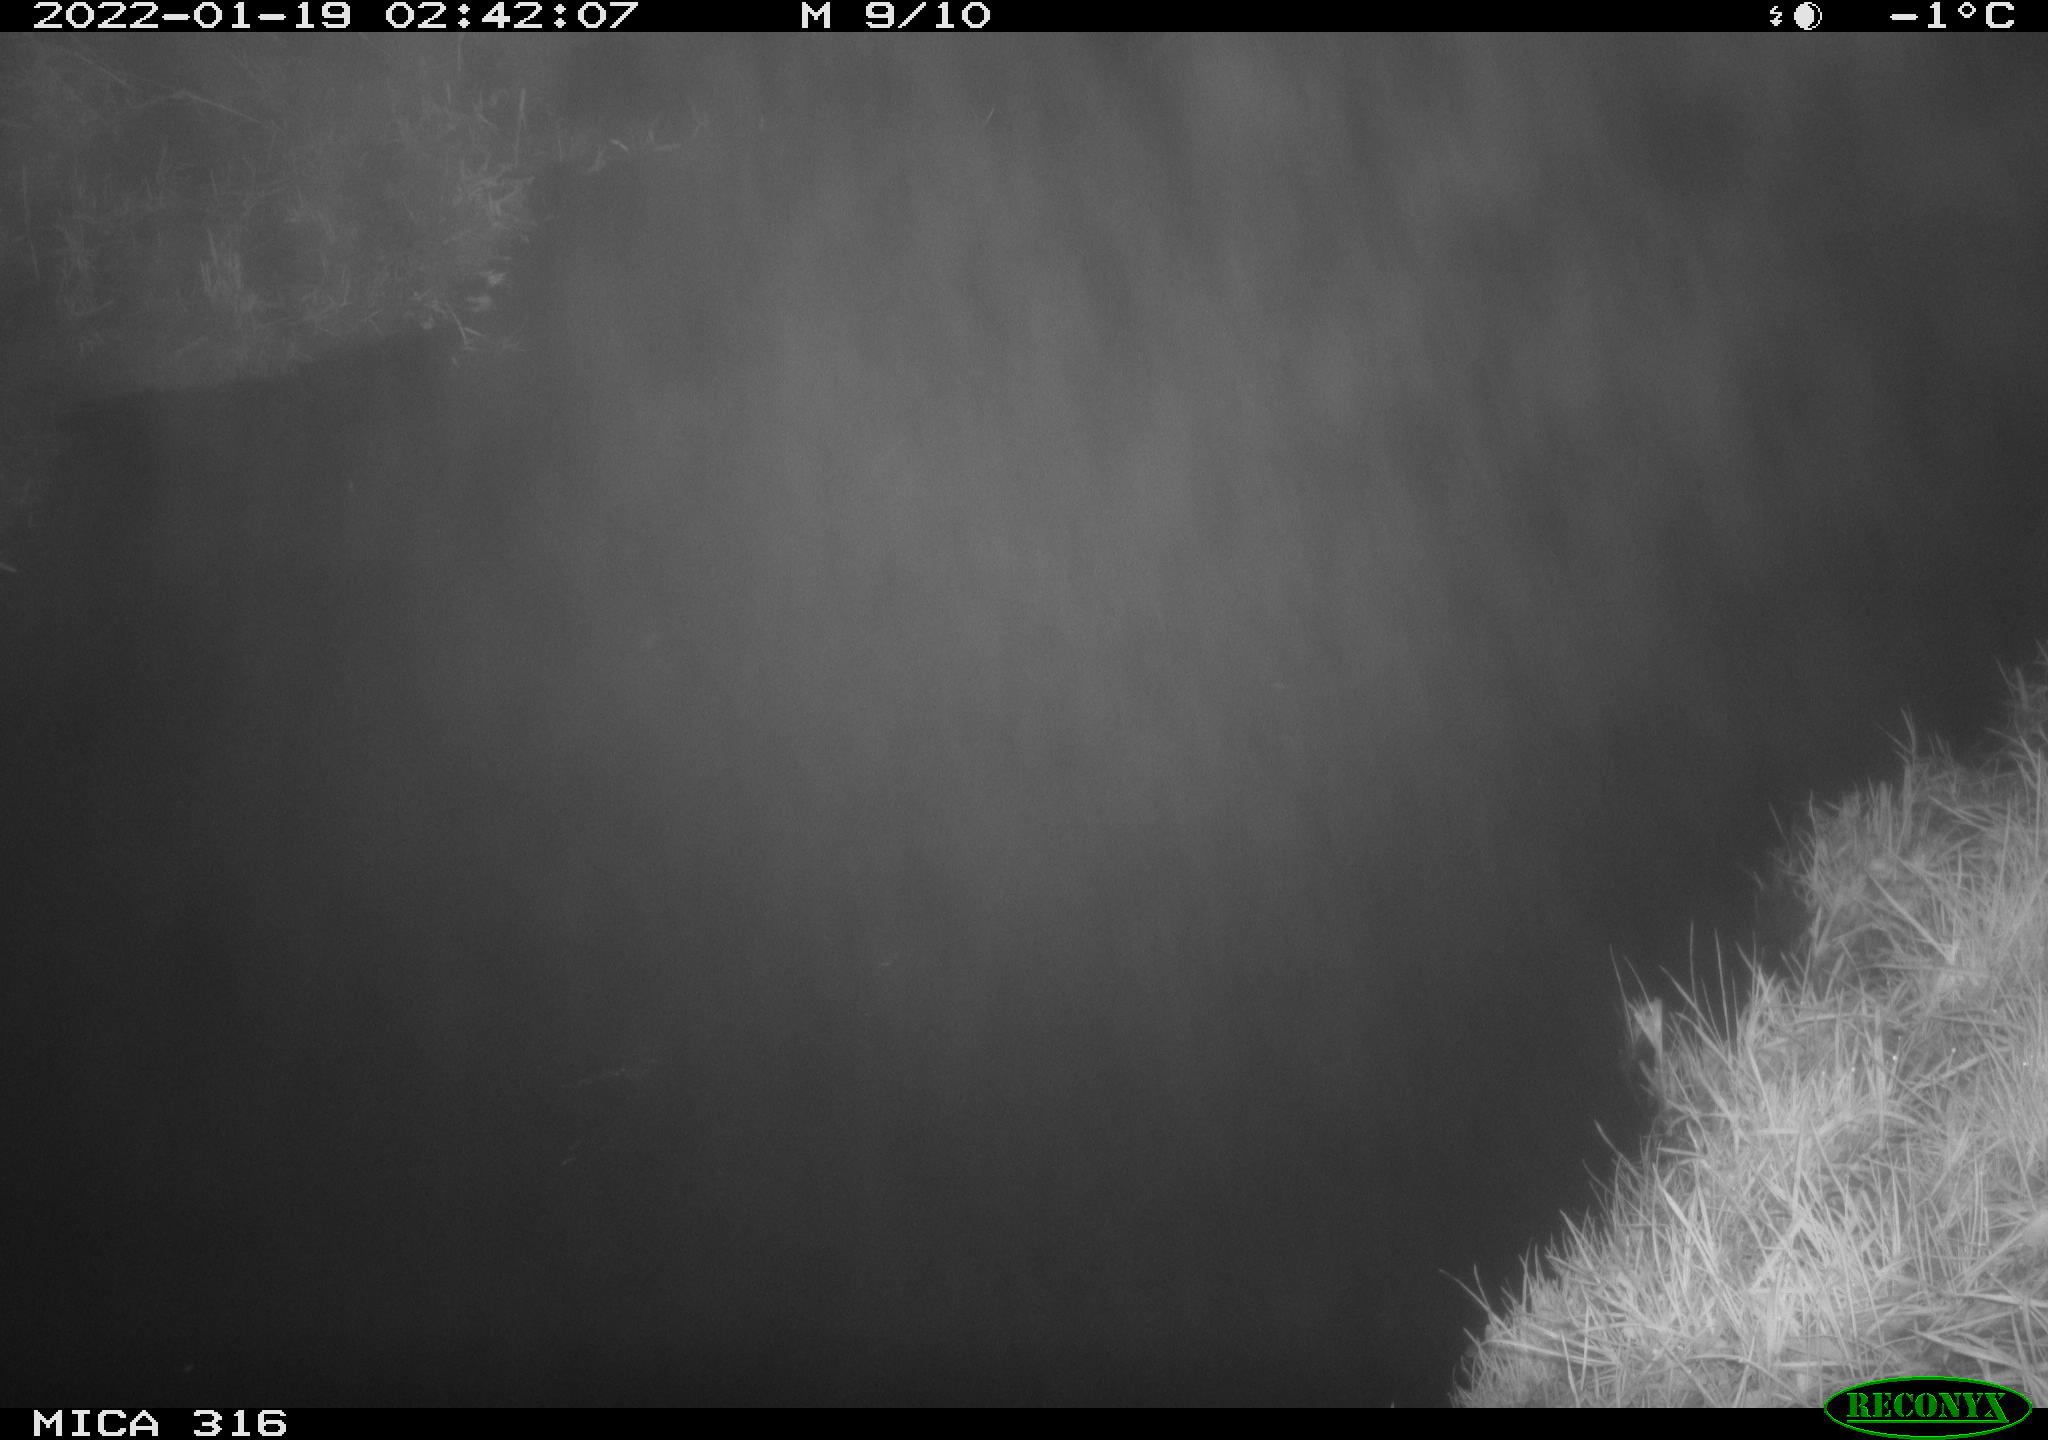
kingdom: Animalia
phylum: Chordata
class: Aves
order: Anseriformes
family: Anatidae
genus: Anas
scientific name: Anas
